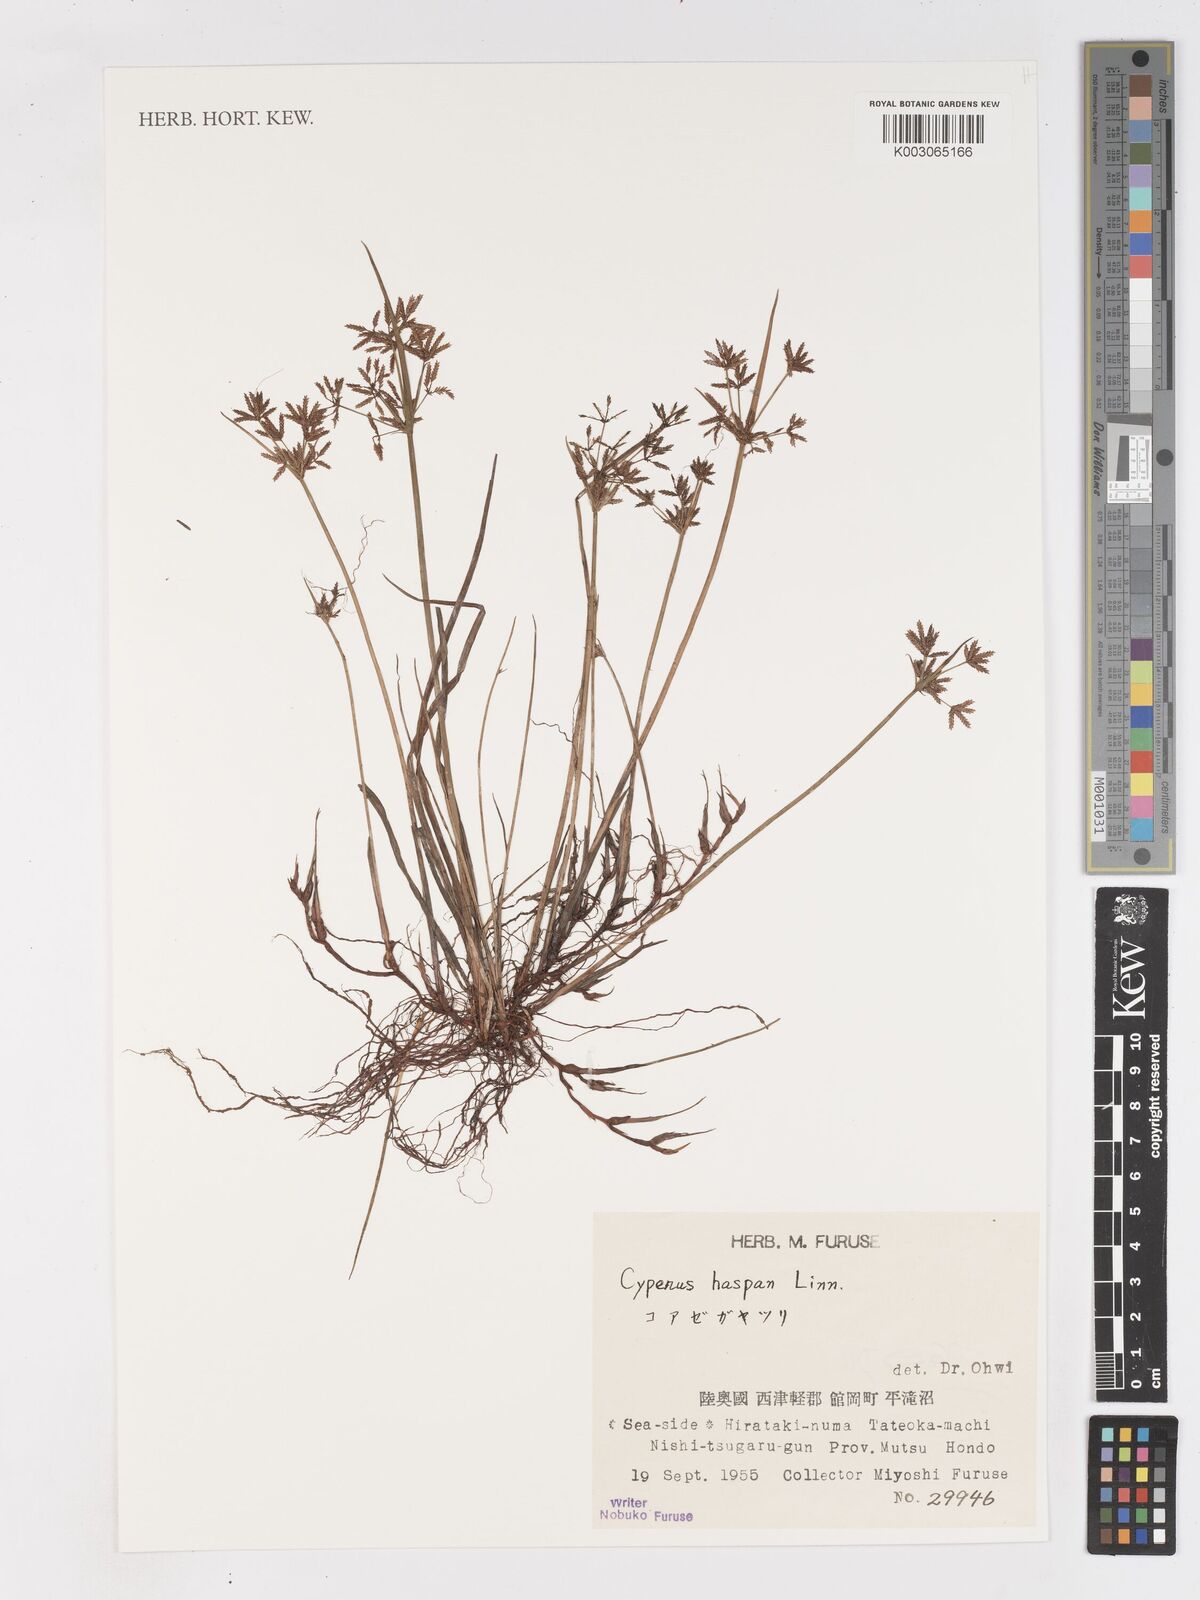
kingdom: Plantae
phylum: Tracheophyta
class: Liliopsida
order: Poales
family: Cyperaceae
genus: Cyperus
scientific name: Cyperus haspan
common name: Haspan flatsedge
